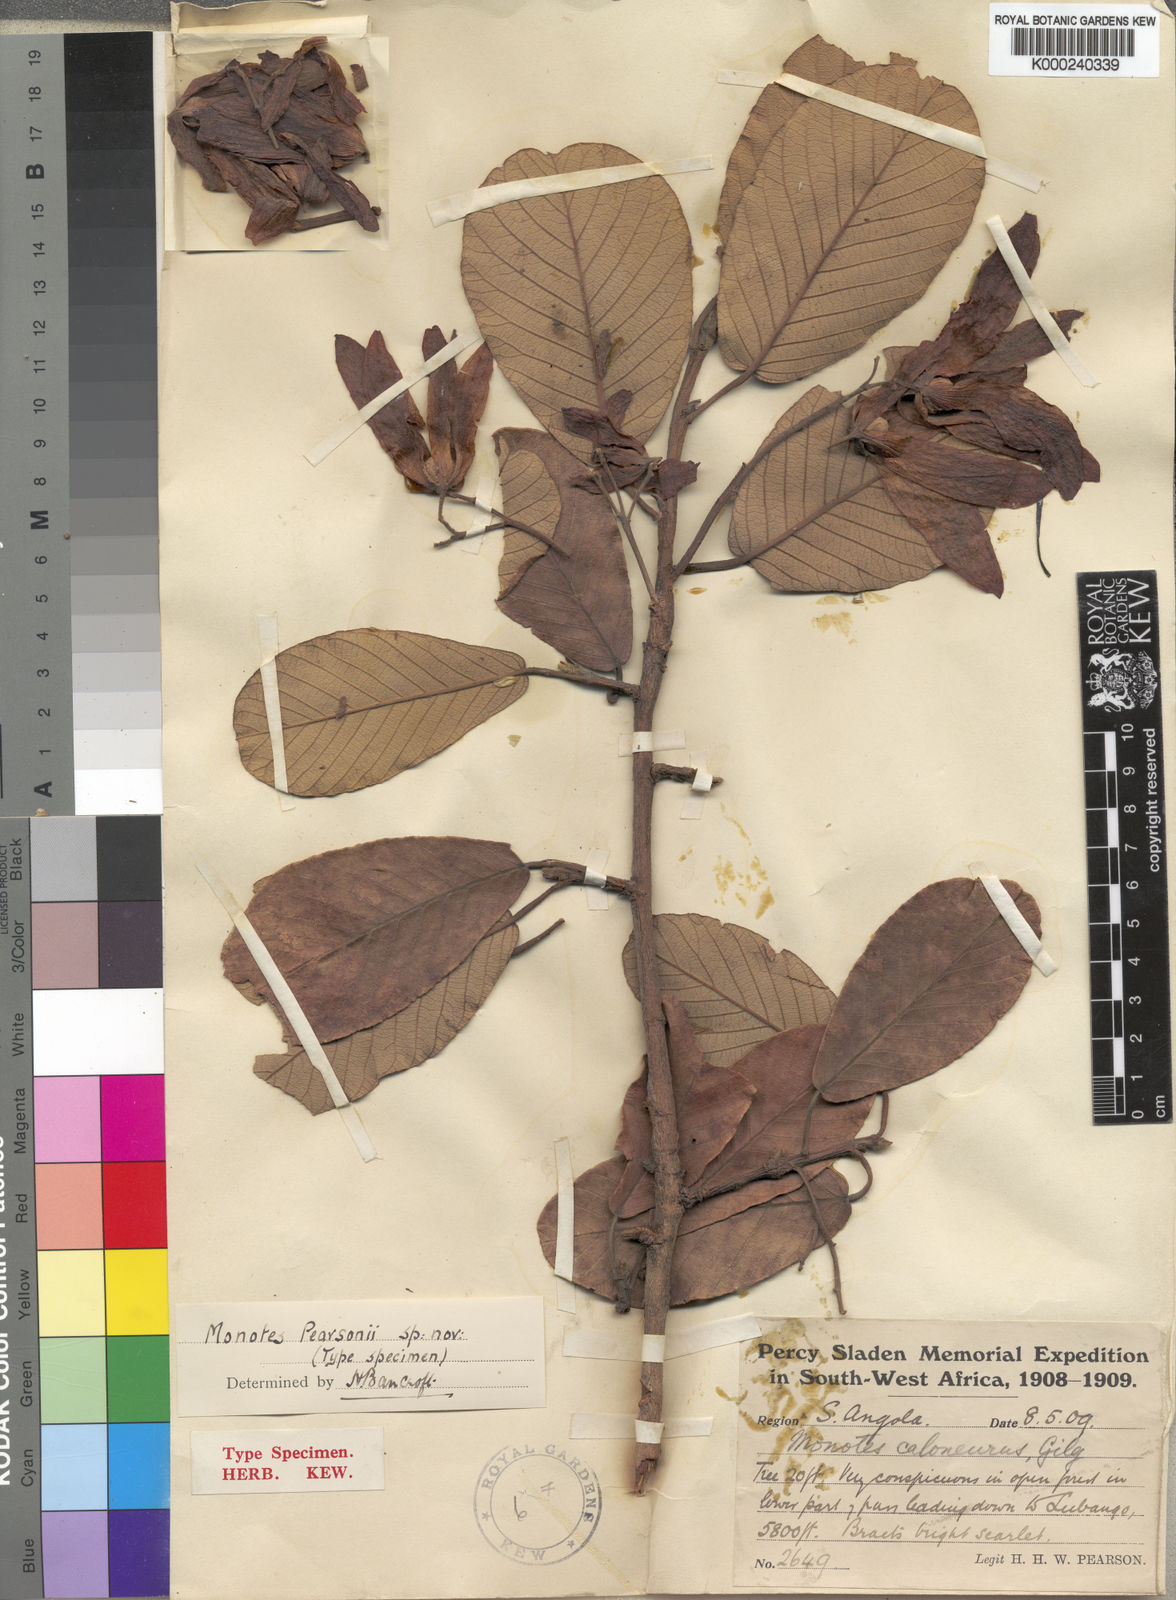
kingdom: Plantae
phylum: Tracheophyta
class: Magnoliopsida
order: Malvales
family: Dipterocarpaceae
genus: Monotes
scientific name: Monotes pearsonii
